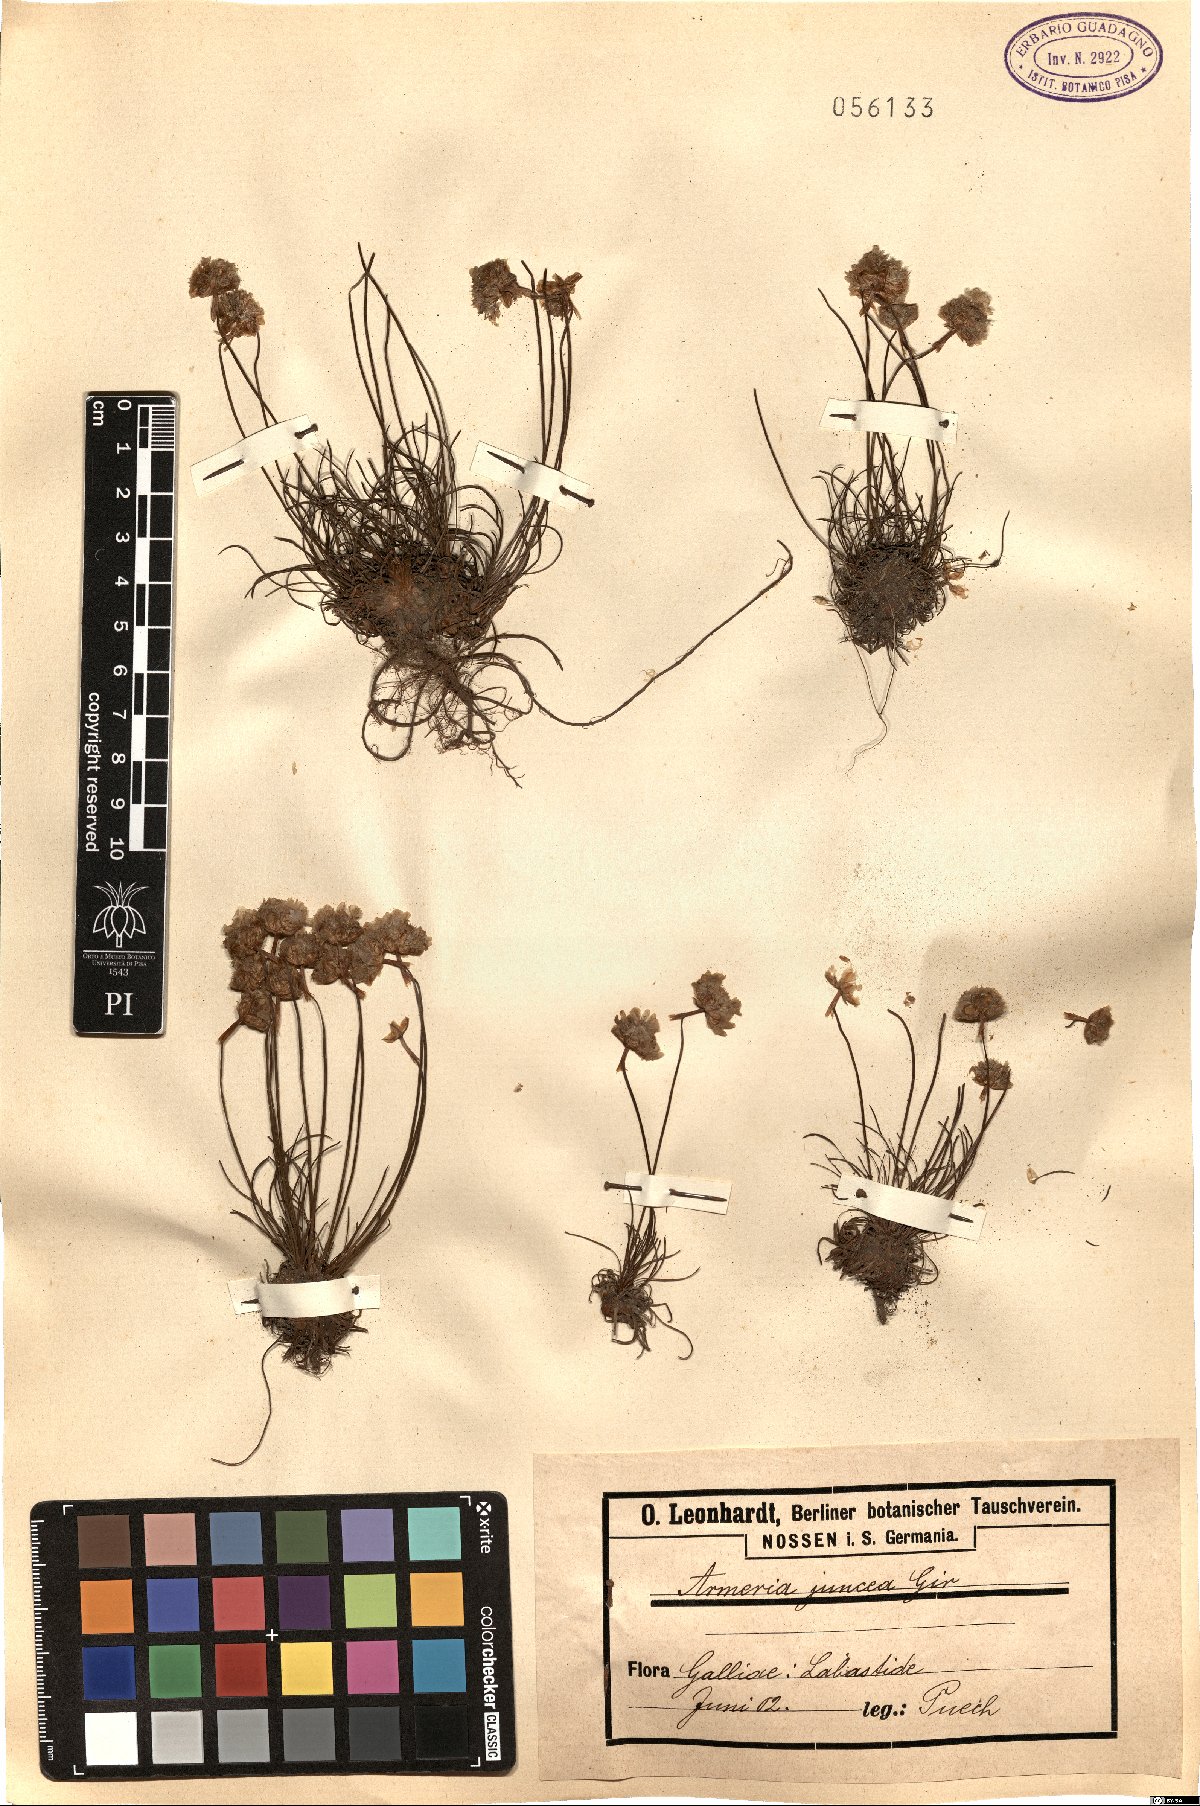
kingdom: Plantae
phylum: Tracheophyta
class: Magnoliopsida
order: Caryophyllales
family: Plumbaginaceae
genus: Armeria
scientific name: Armeria alliacea
